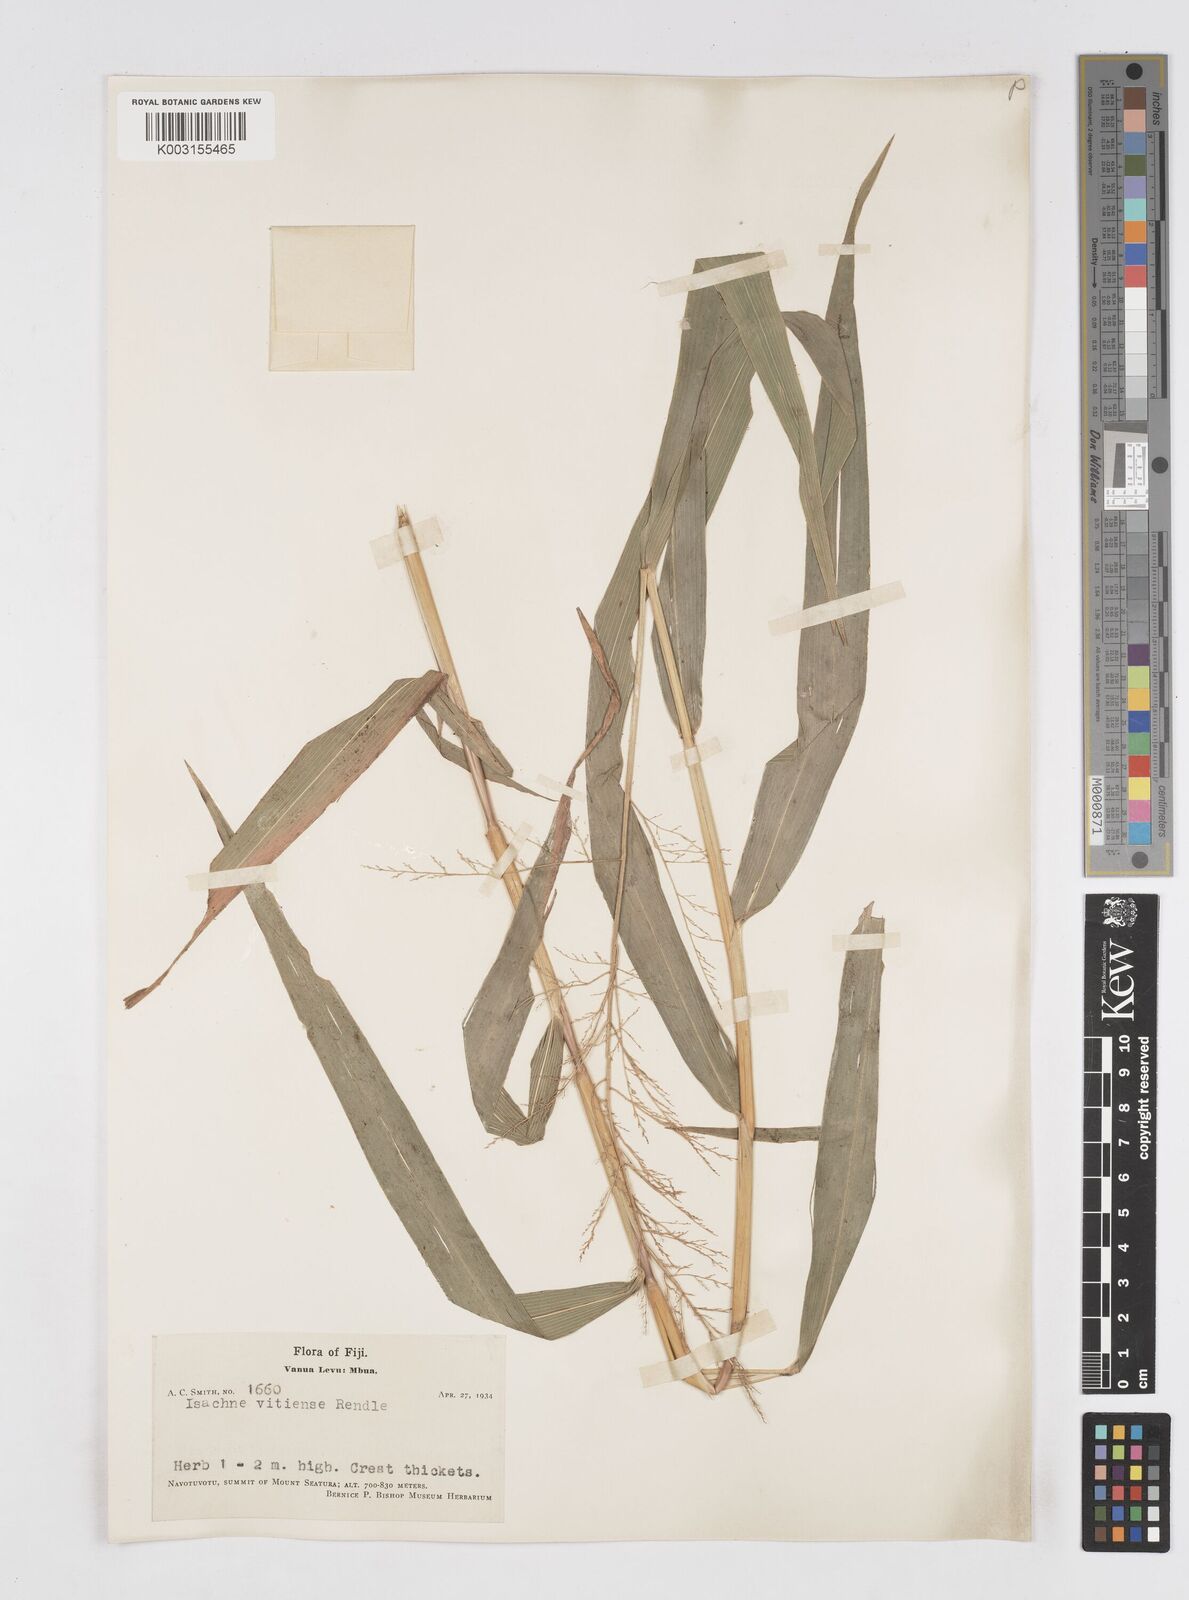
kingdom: Plantae
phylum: Tracheophyta
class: Liliopsida
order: Poales
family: Poaceae
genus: Isachne
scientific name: Isachne vitiensis
